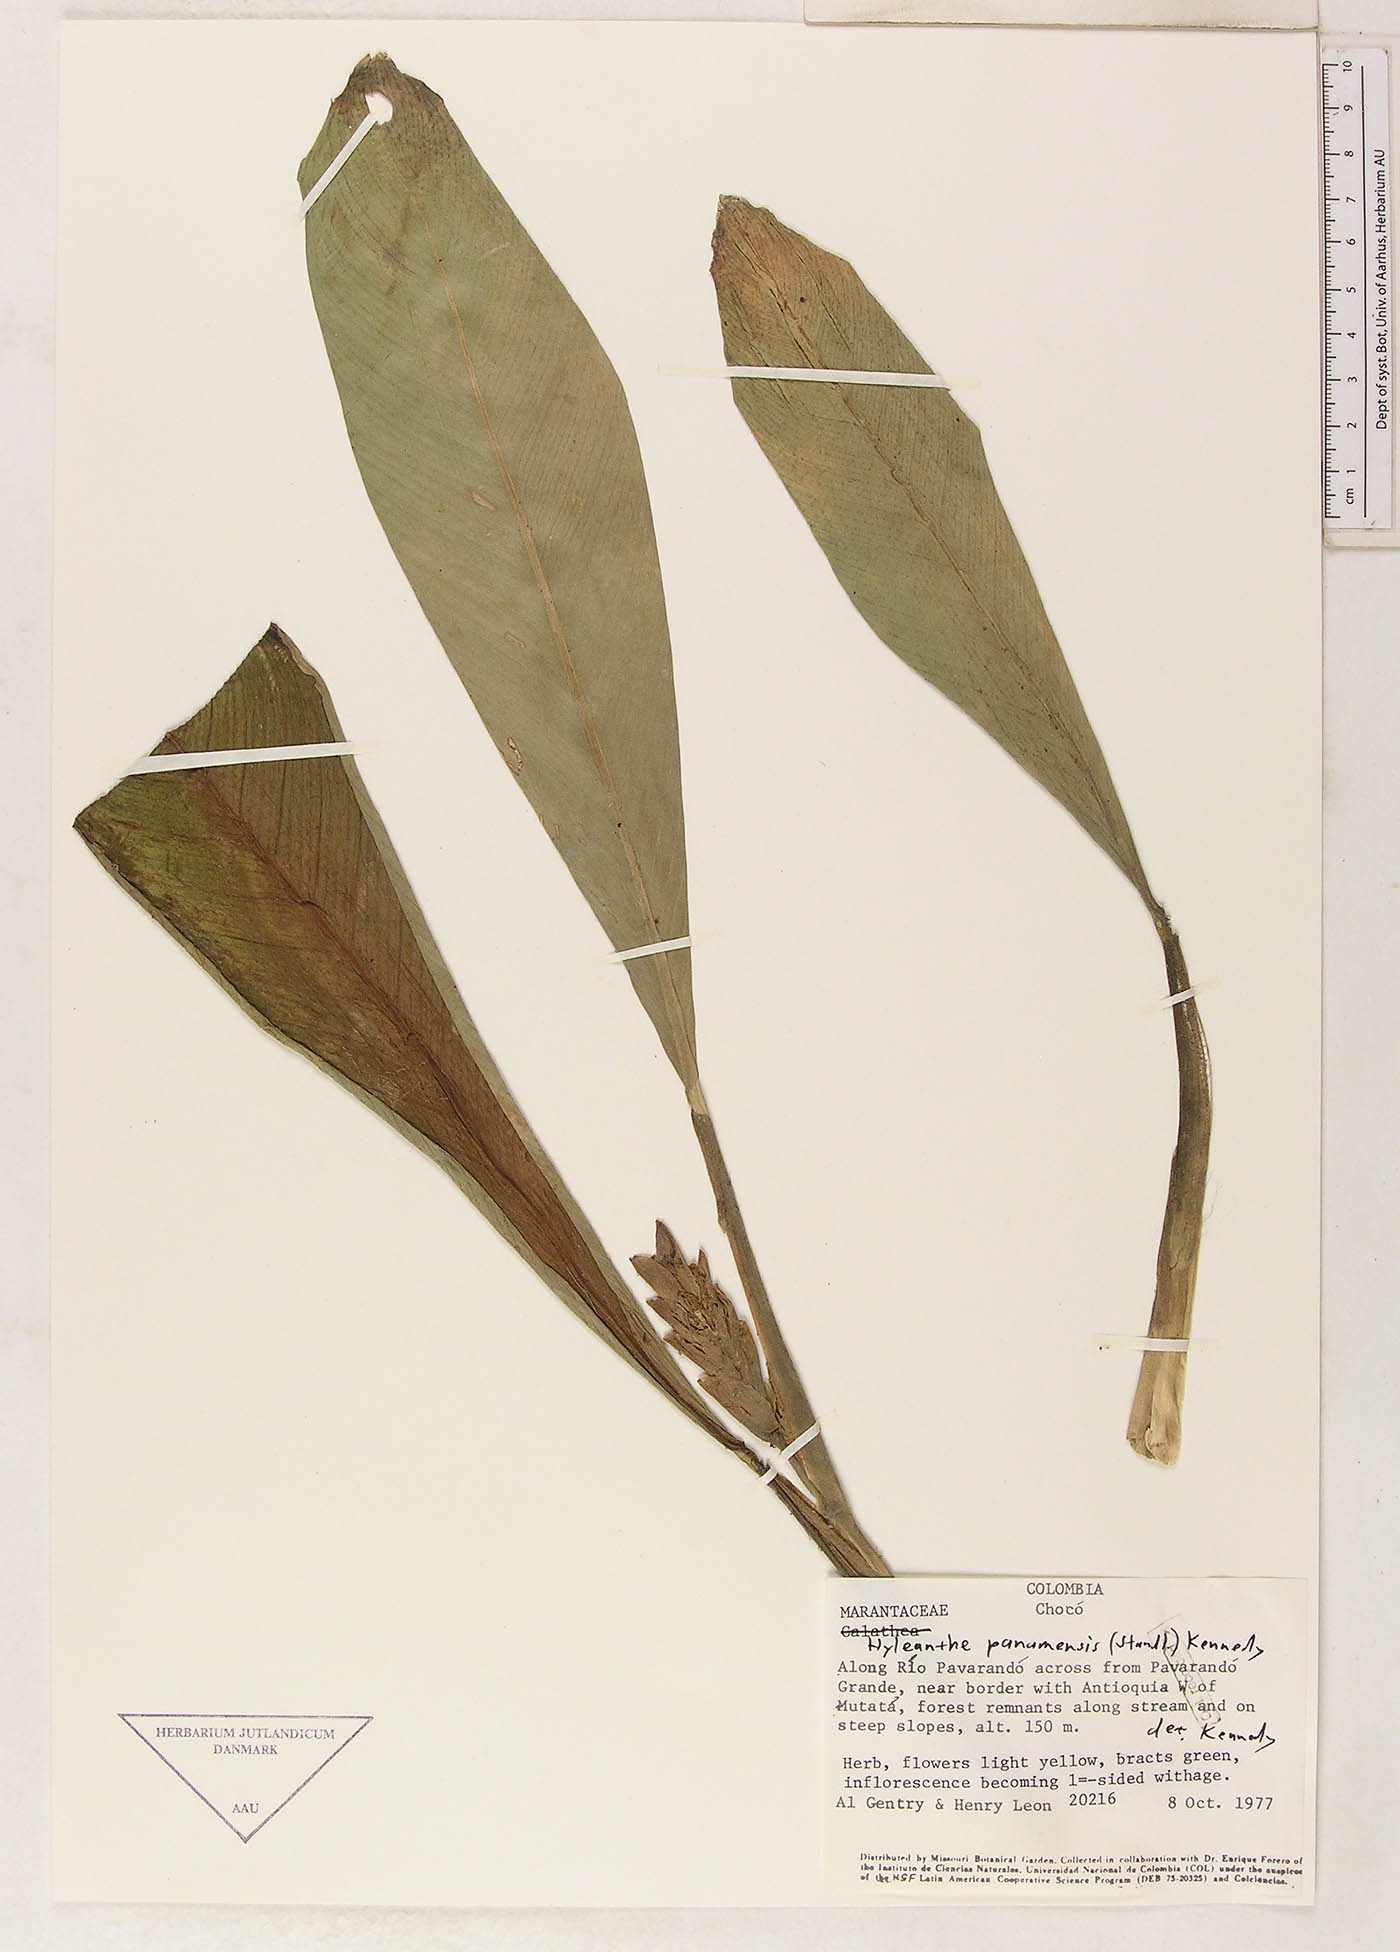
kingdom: Plantae
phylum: Tracheophyta
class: Liliopsida
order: Zingiberales
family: Marantaceae
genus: Hylaeanthe
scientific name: Hylaeanthe panamensis
